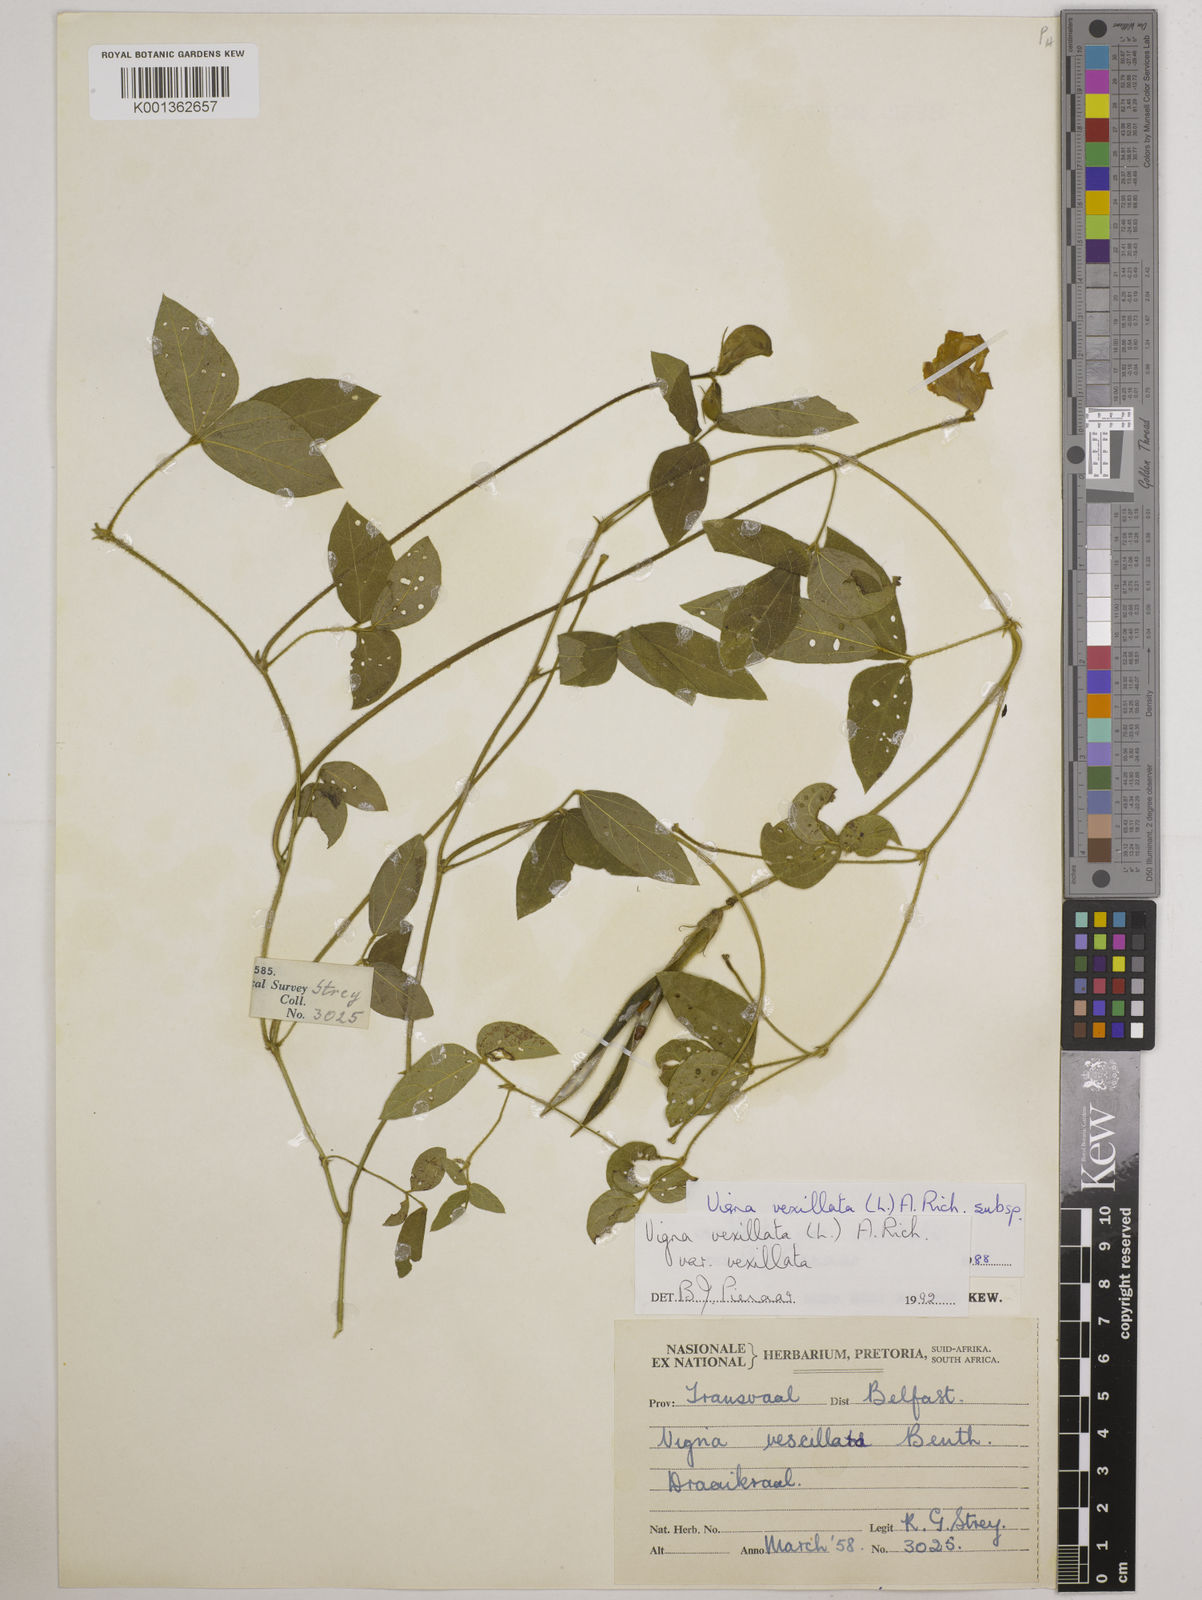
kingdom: Plantae
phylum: Tracheophyta
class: Magnoliopsida
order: Fabales
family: Fabaceae
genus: Vigna
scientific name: Vigna vexillata
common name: Zombi pea
